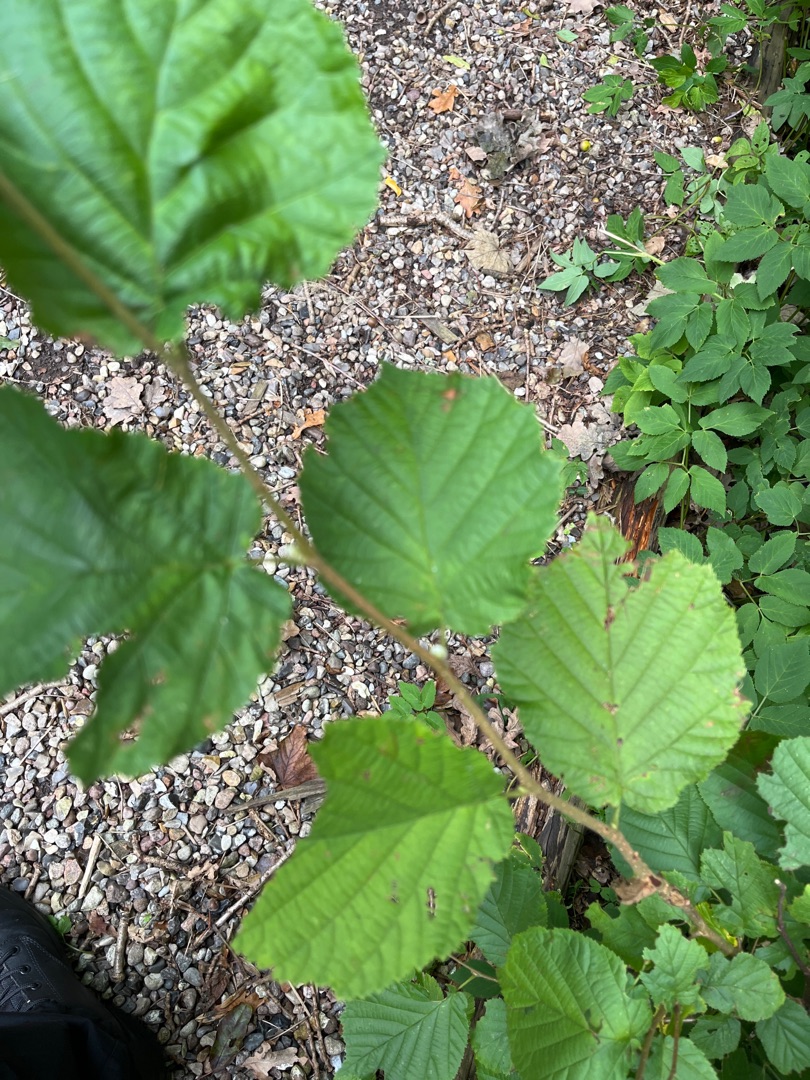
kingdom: Plantae
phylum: Tracheophyta
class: Magnoliopsida
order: Fagales
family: Betulaceae
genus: Corylus
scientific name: Corylus avellana
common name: Hassel
